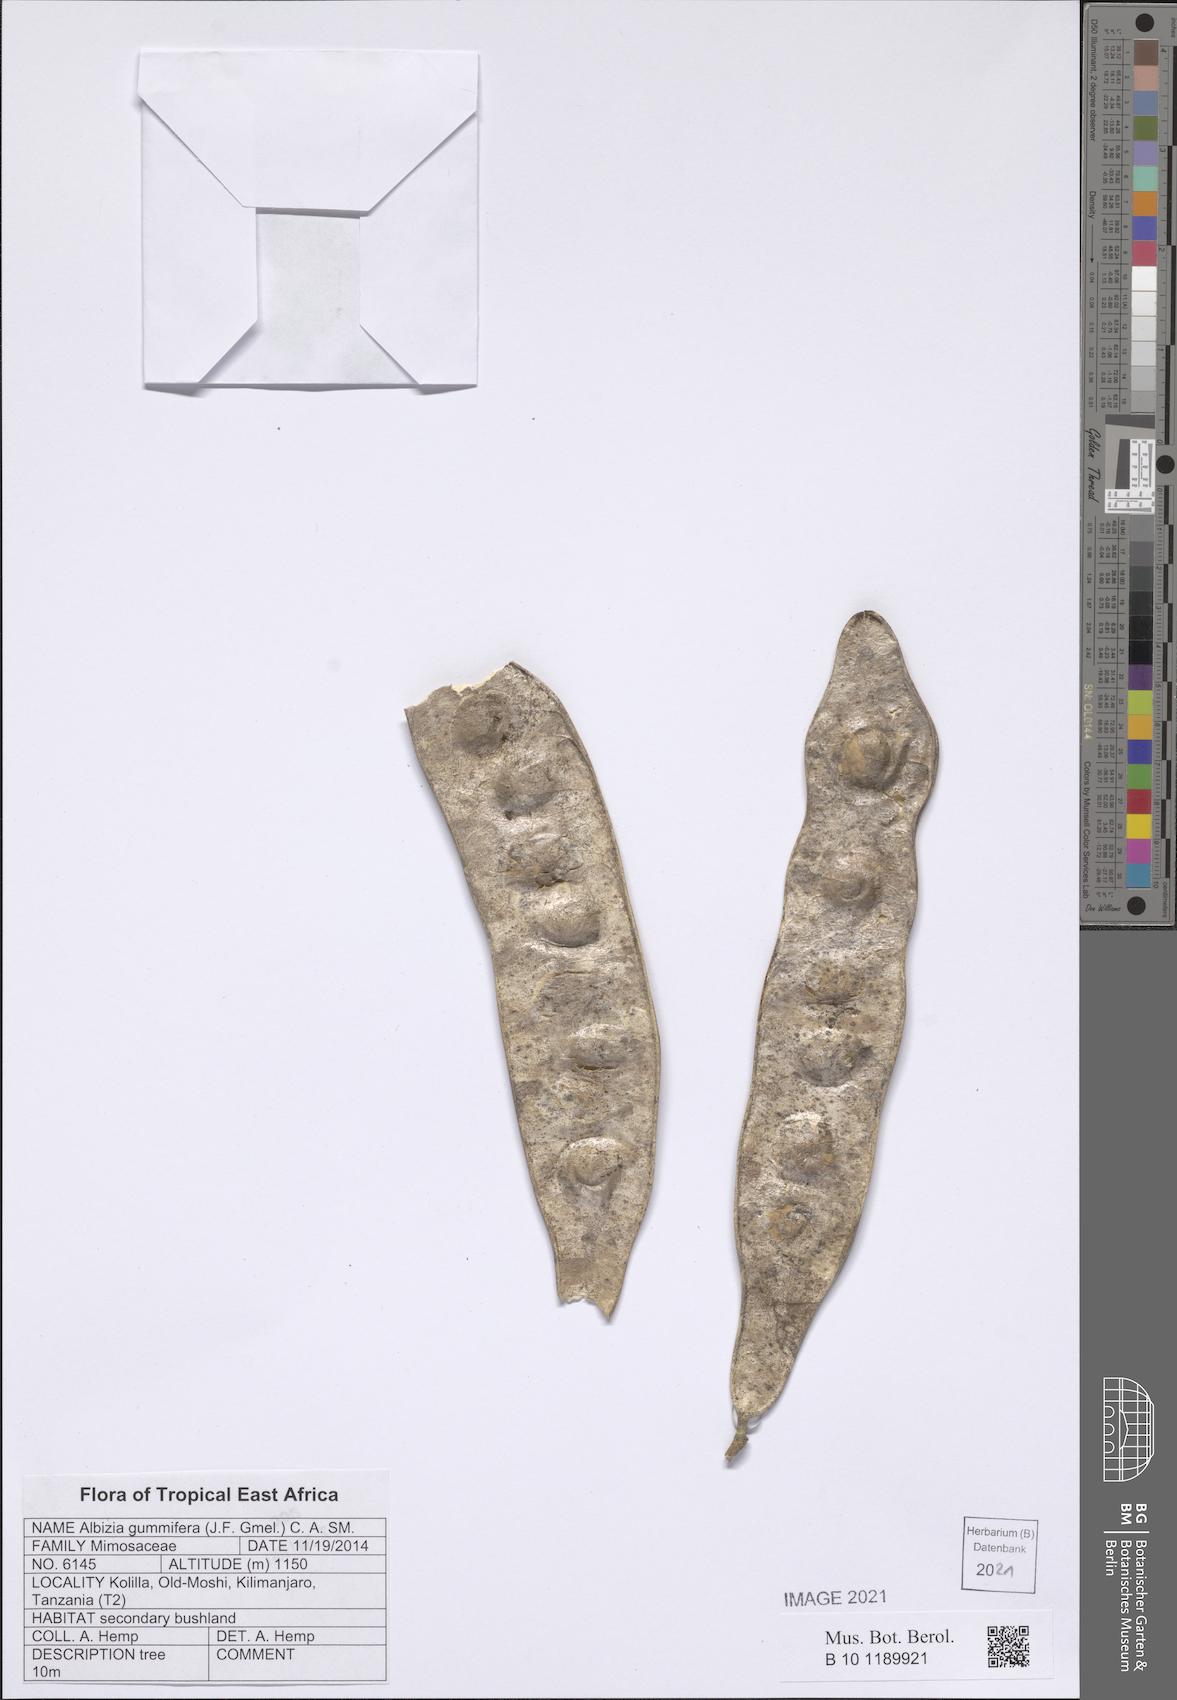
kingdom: Plantae
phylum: Tracheophyta
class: Magnoliopsida
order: Fabales
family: Fabaceae
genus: Albizia
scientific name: Albizia gummifera
